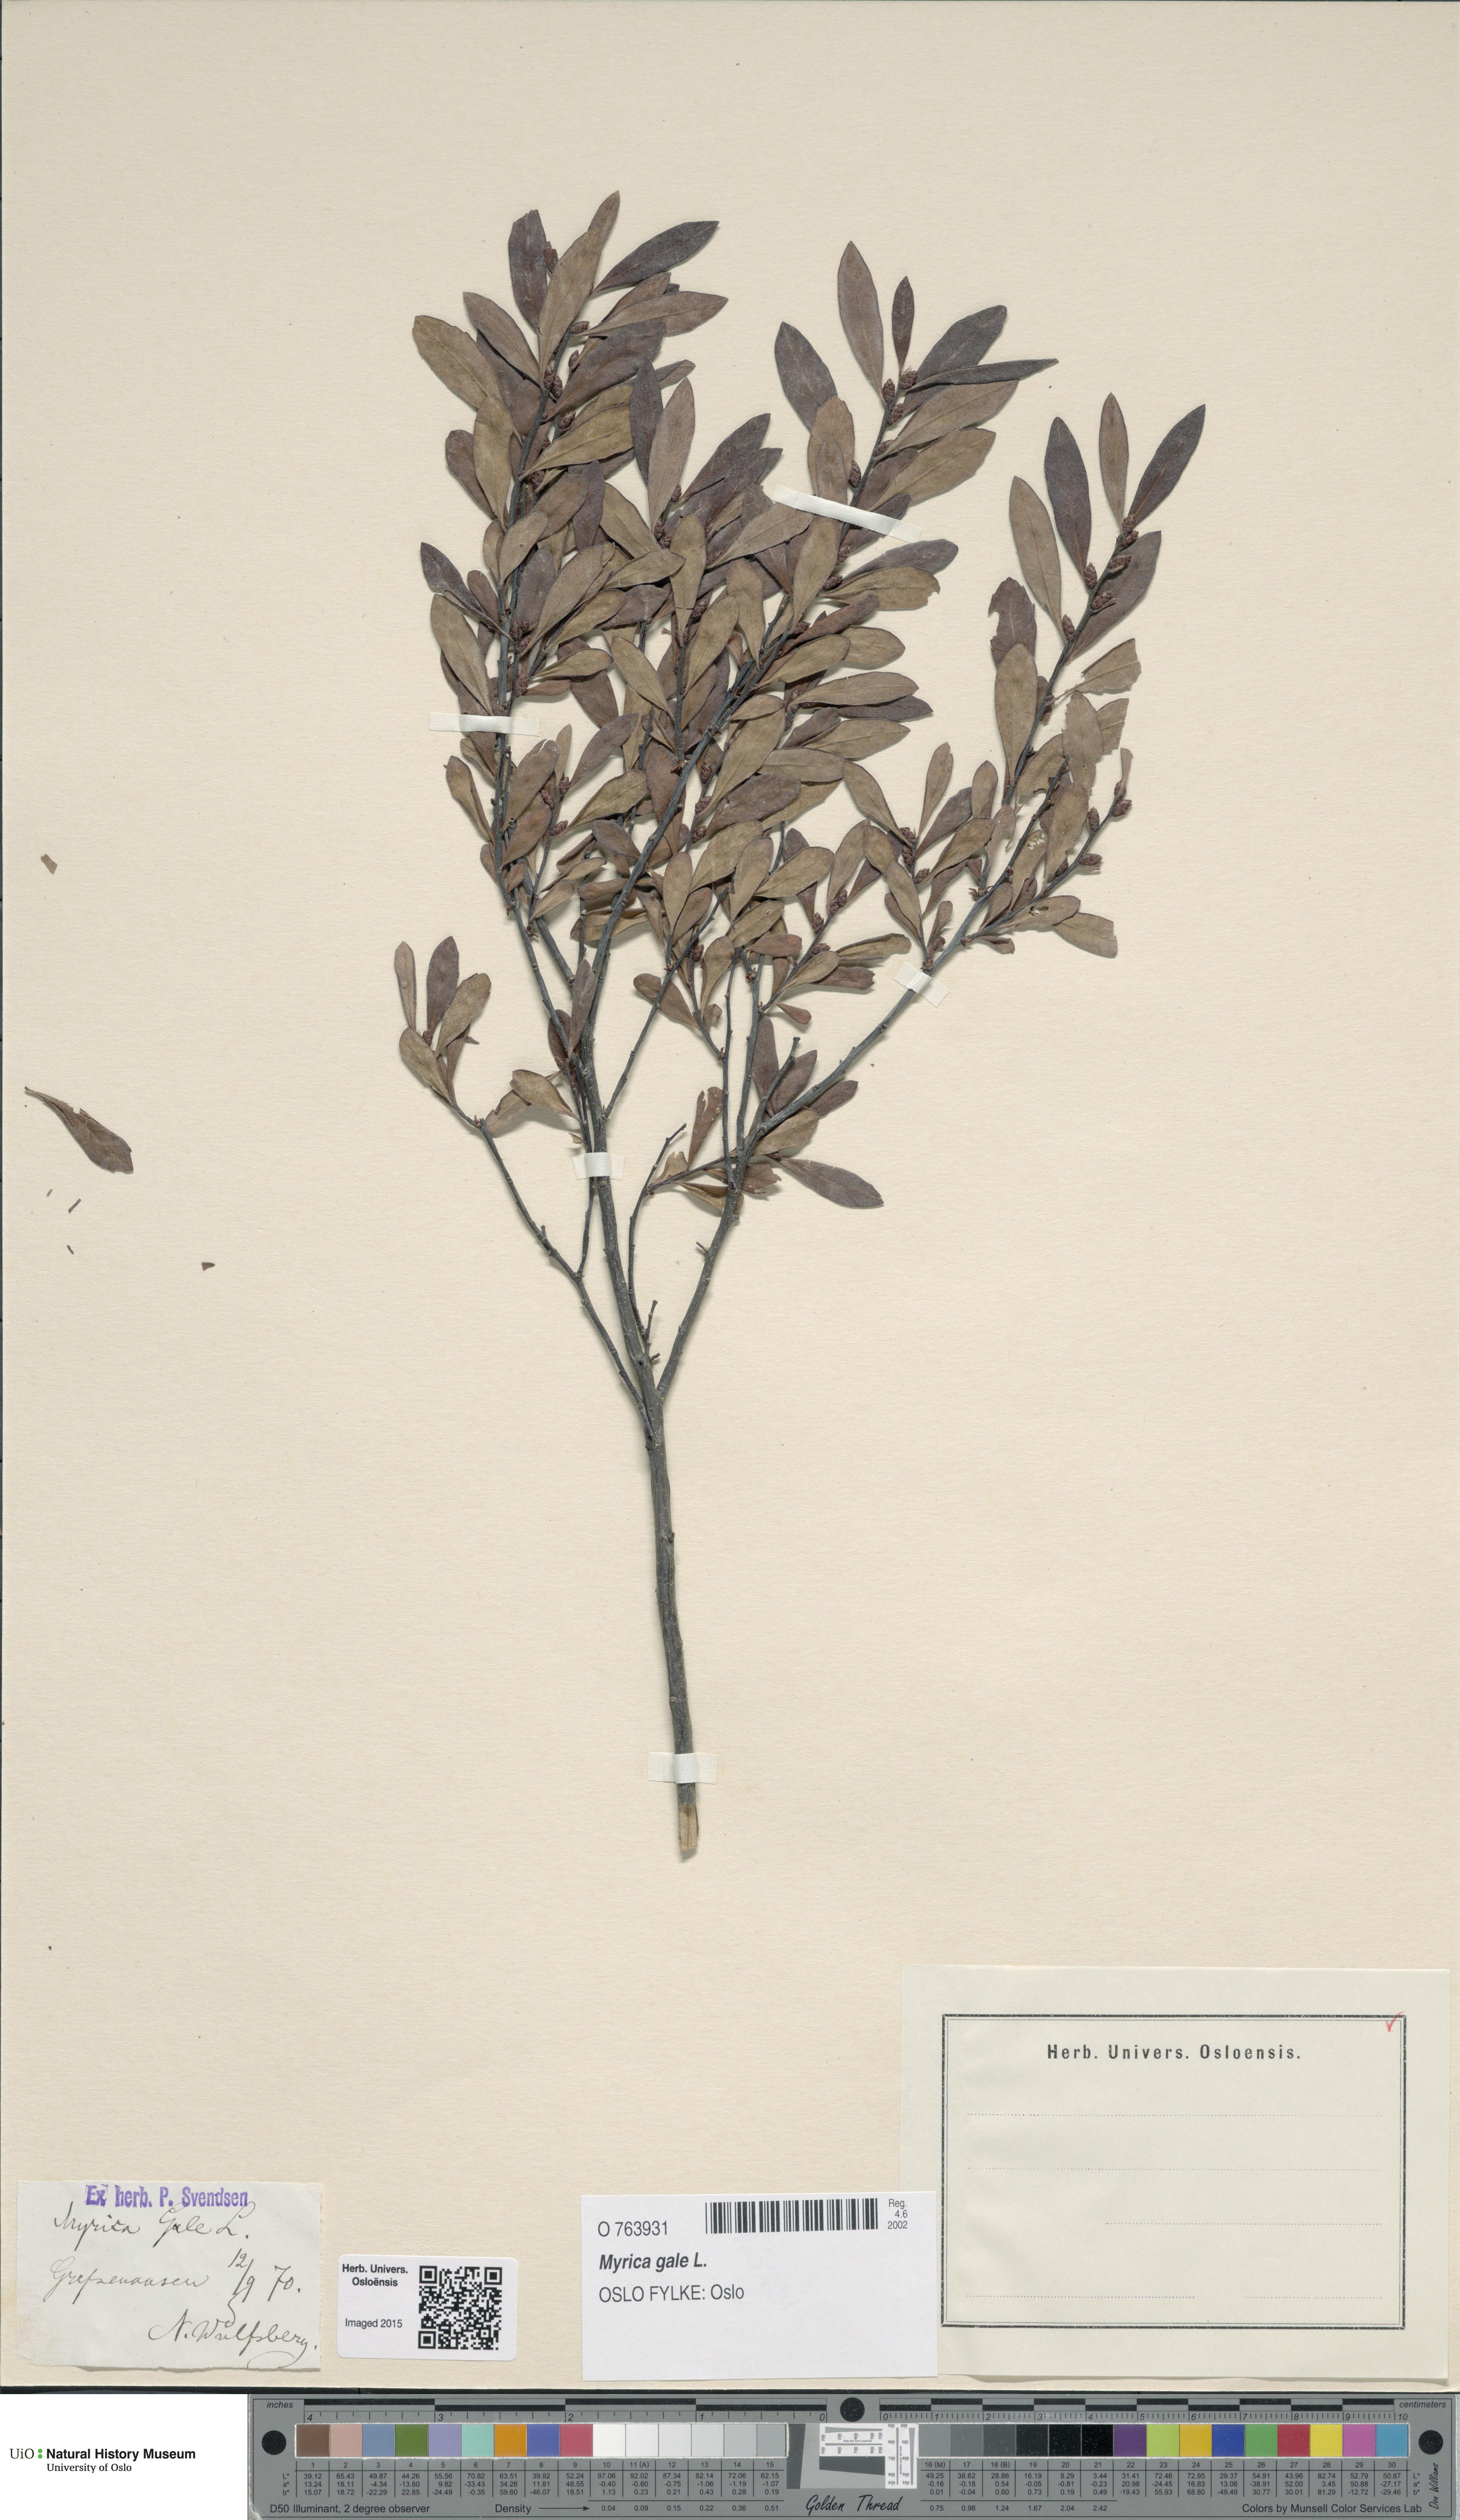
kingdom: Plantae
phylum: Tracheophyta
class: Magnoliopsida
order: Fagales
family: Myricaceae
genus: Myrica
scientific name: Myrica gale
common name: Sweet gale
